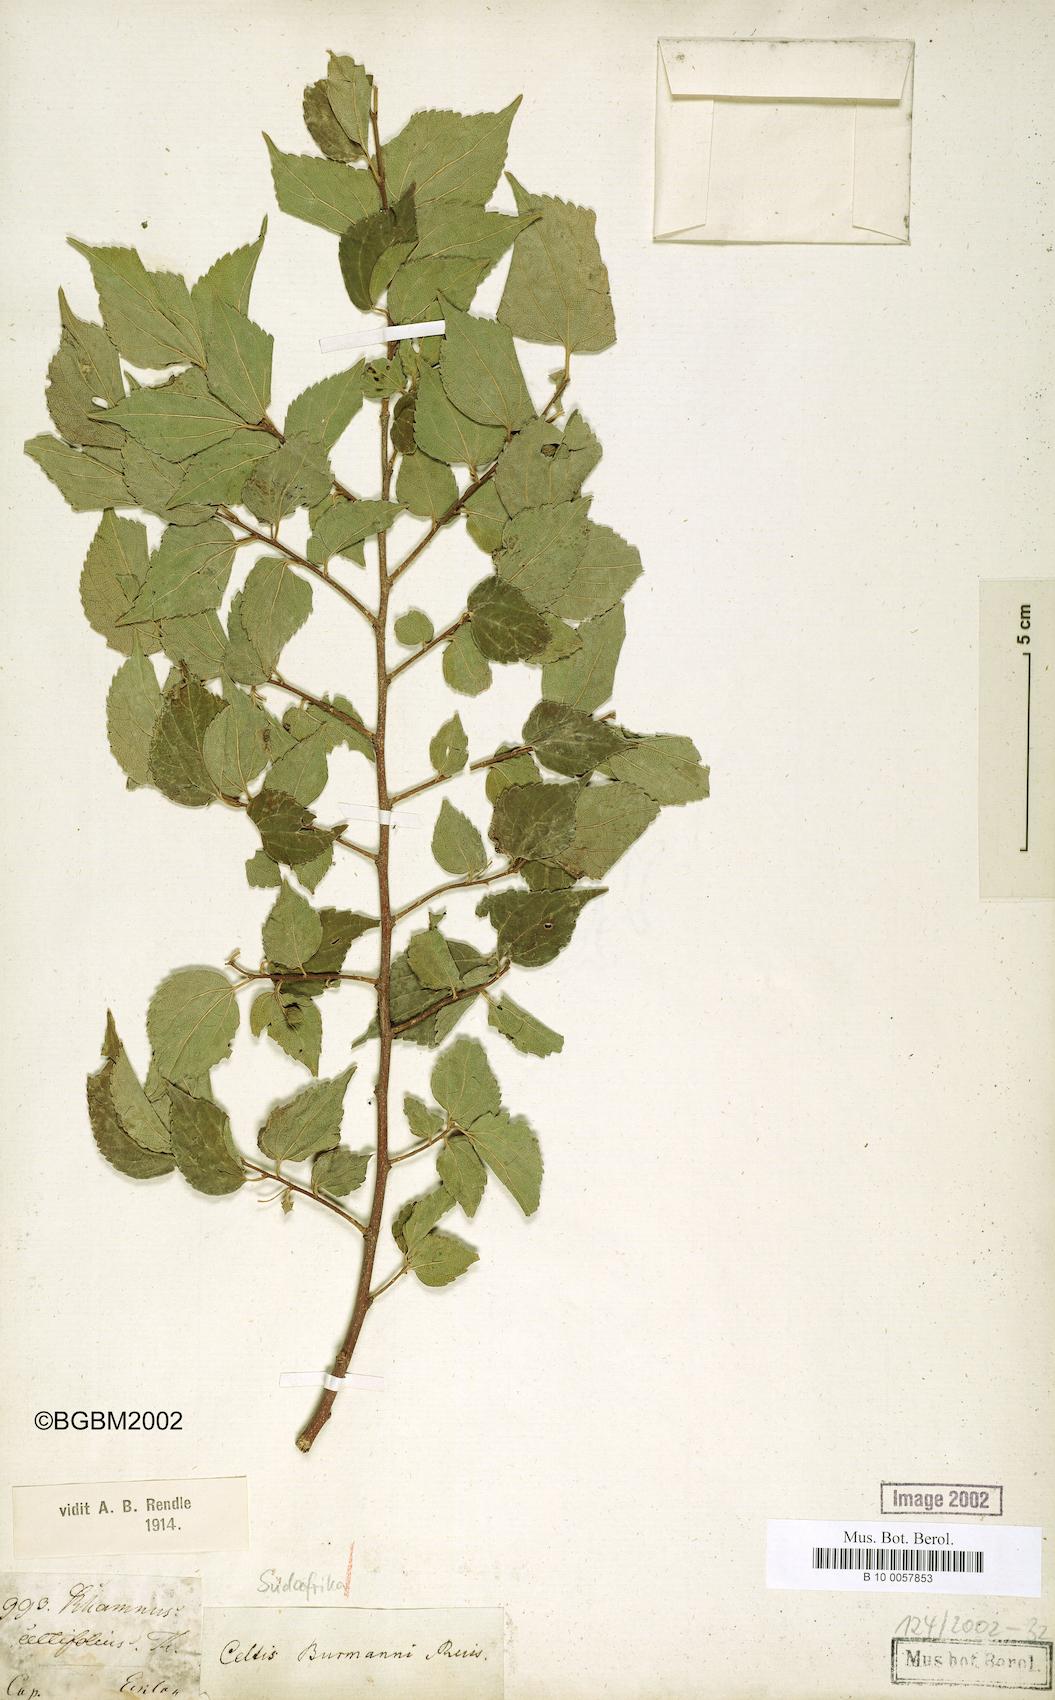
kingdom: Plantae
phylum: Tracheophyta
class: Magnoliopsida
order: Rosales
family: Cannabaceae
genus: Celtis
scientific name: Celtis africana
